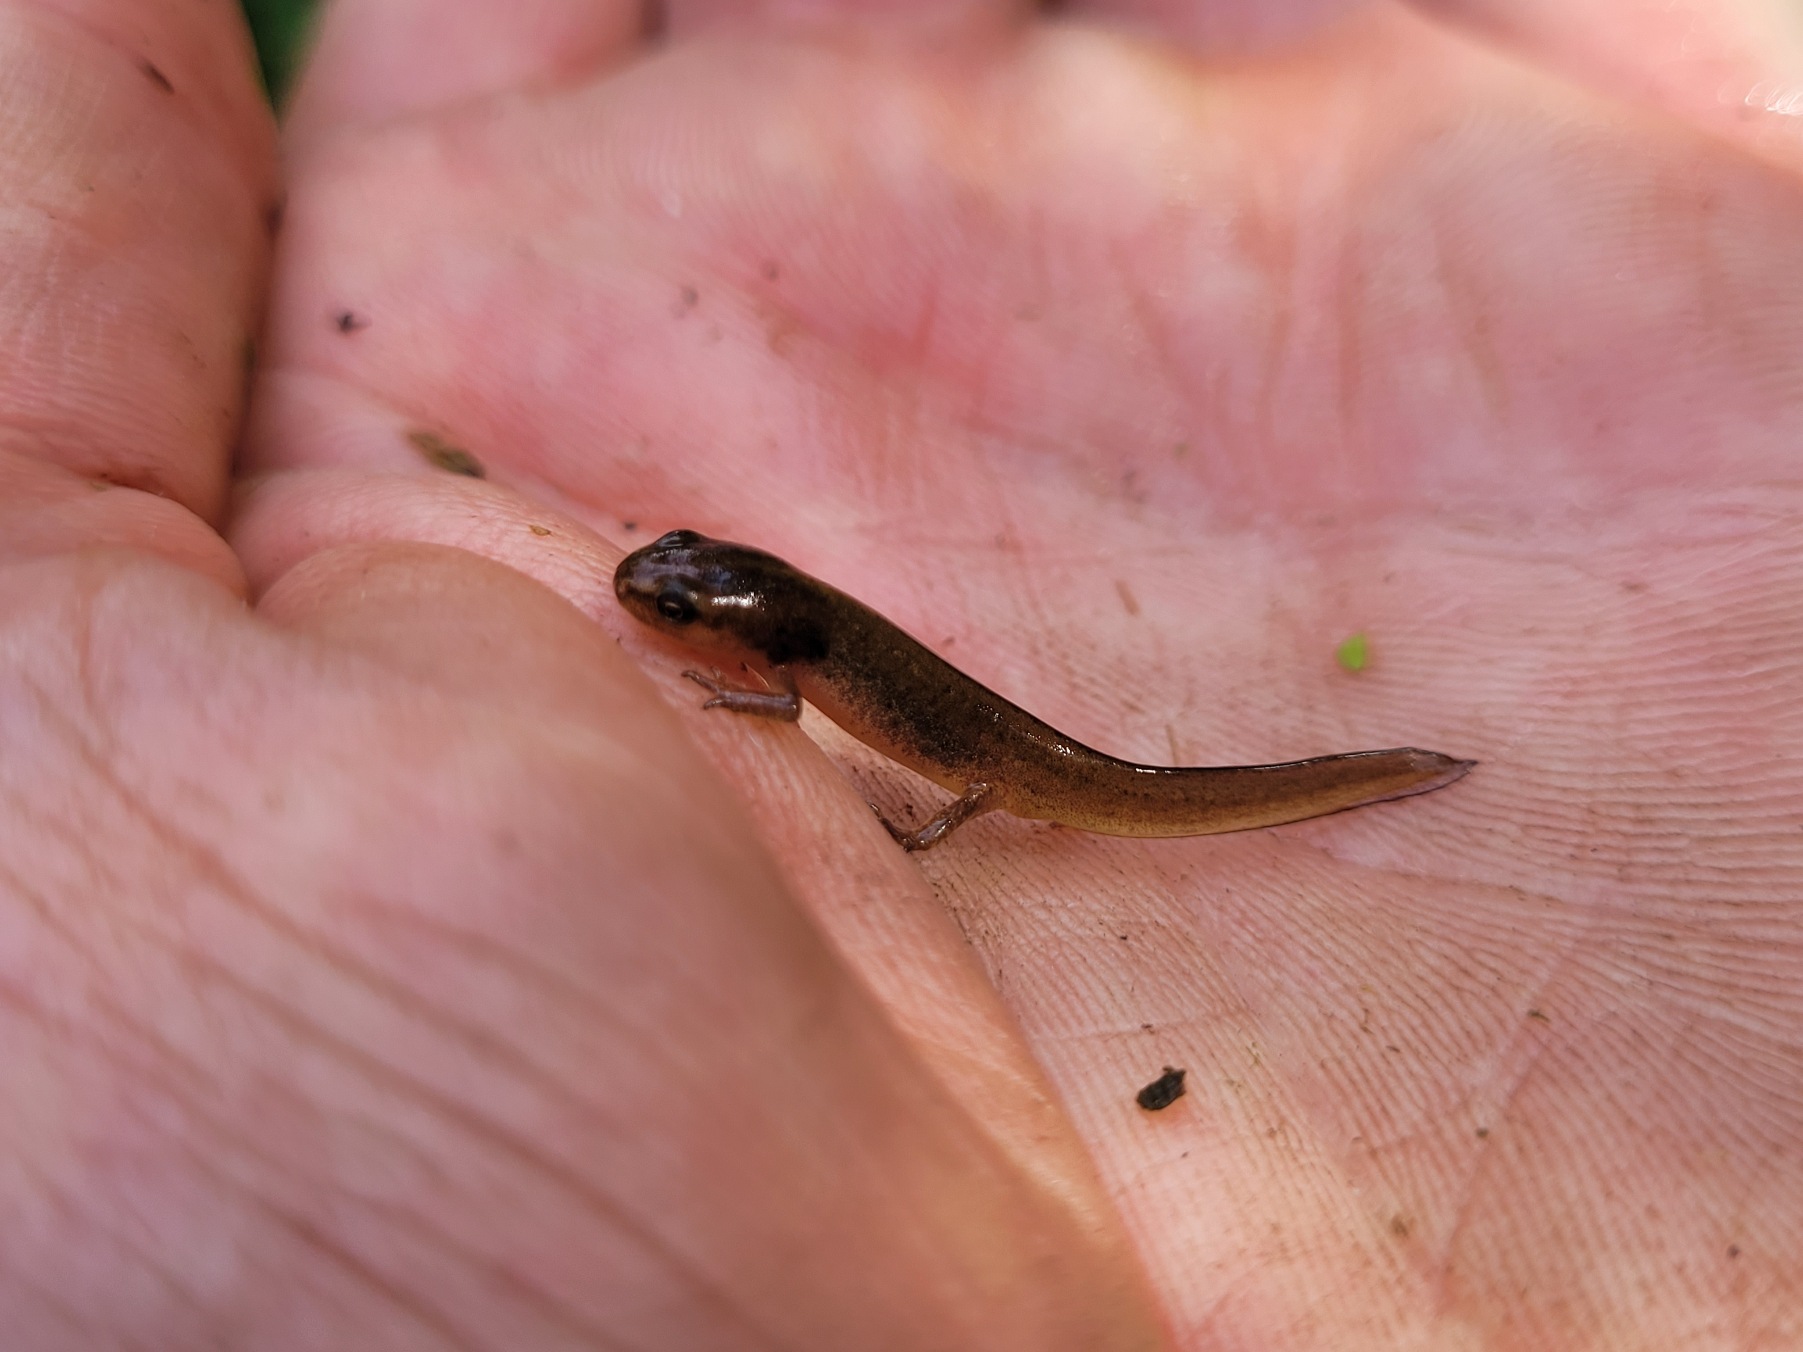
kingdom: Animalia
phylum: Chordata
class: Amphibia
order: Caudata
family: Salamandridae
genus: Lissotriton
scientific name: Lissotriton vulgaris
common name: Lille vandsalamander
